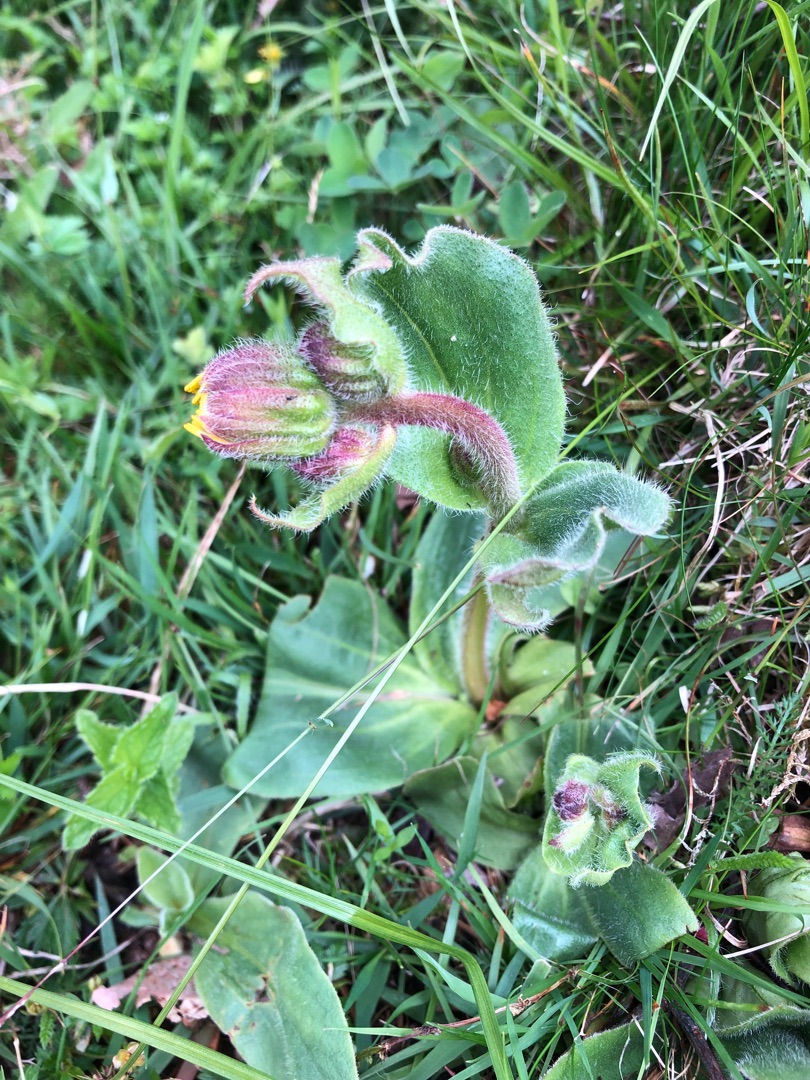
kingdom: Plantae
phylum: Tracheophyta
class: Magnoliopsida
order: Asterales
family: Asteraceae
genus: Arnica
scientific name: Arnica montana
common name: Guldblomme
